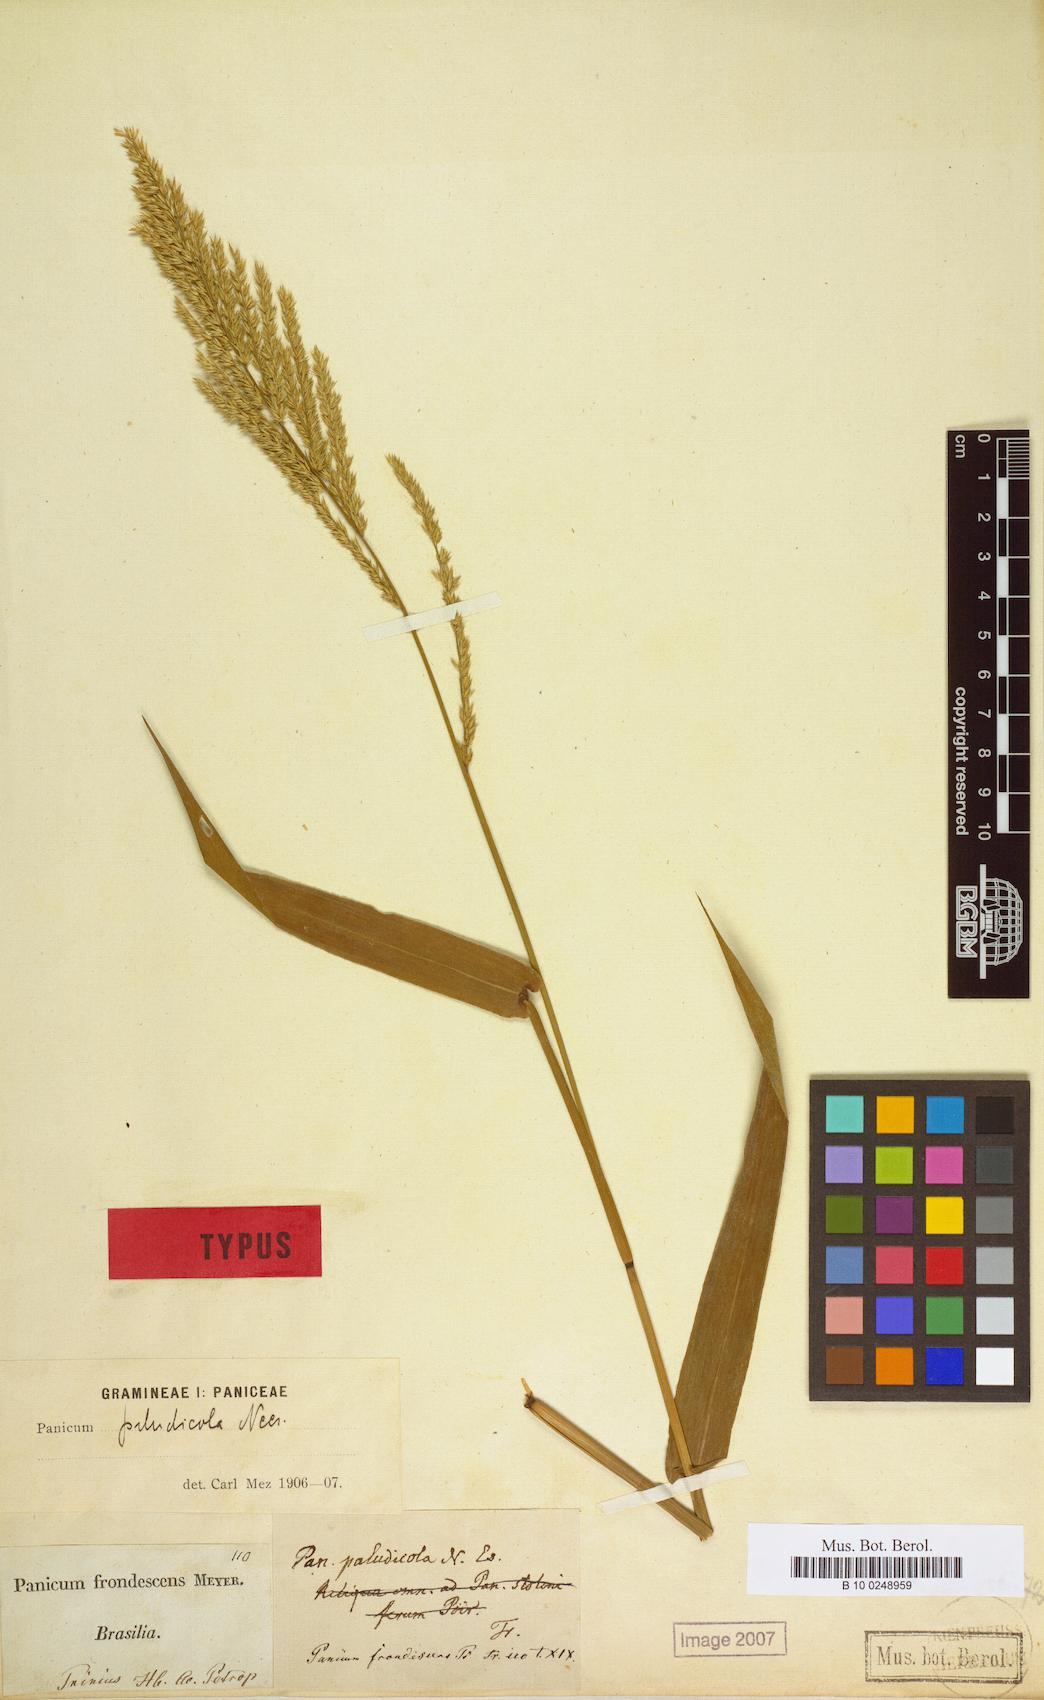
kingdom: Plantae
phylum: Tracheophyta
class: Liliopsida
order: Poales
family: Poaceae
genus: Hymenachne
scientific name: Hymenachne donacifolia
